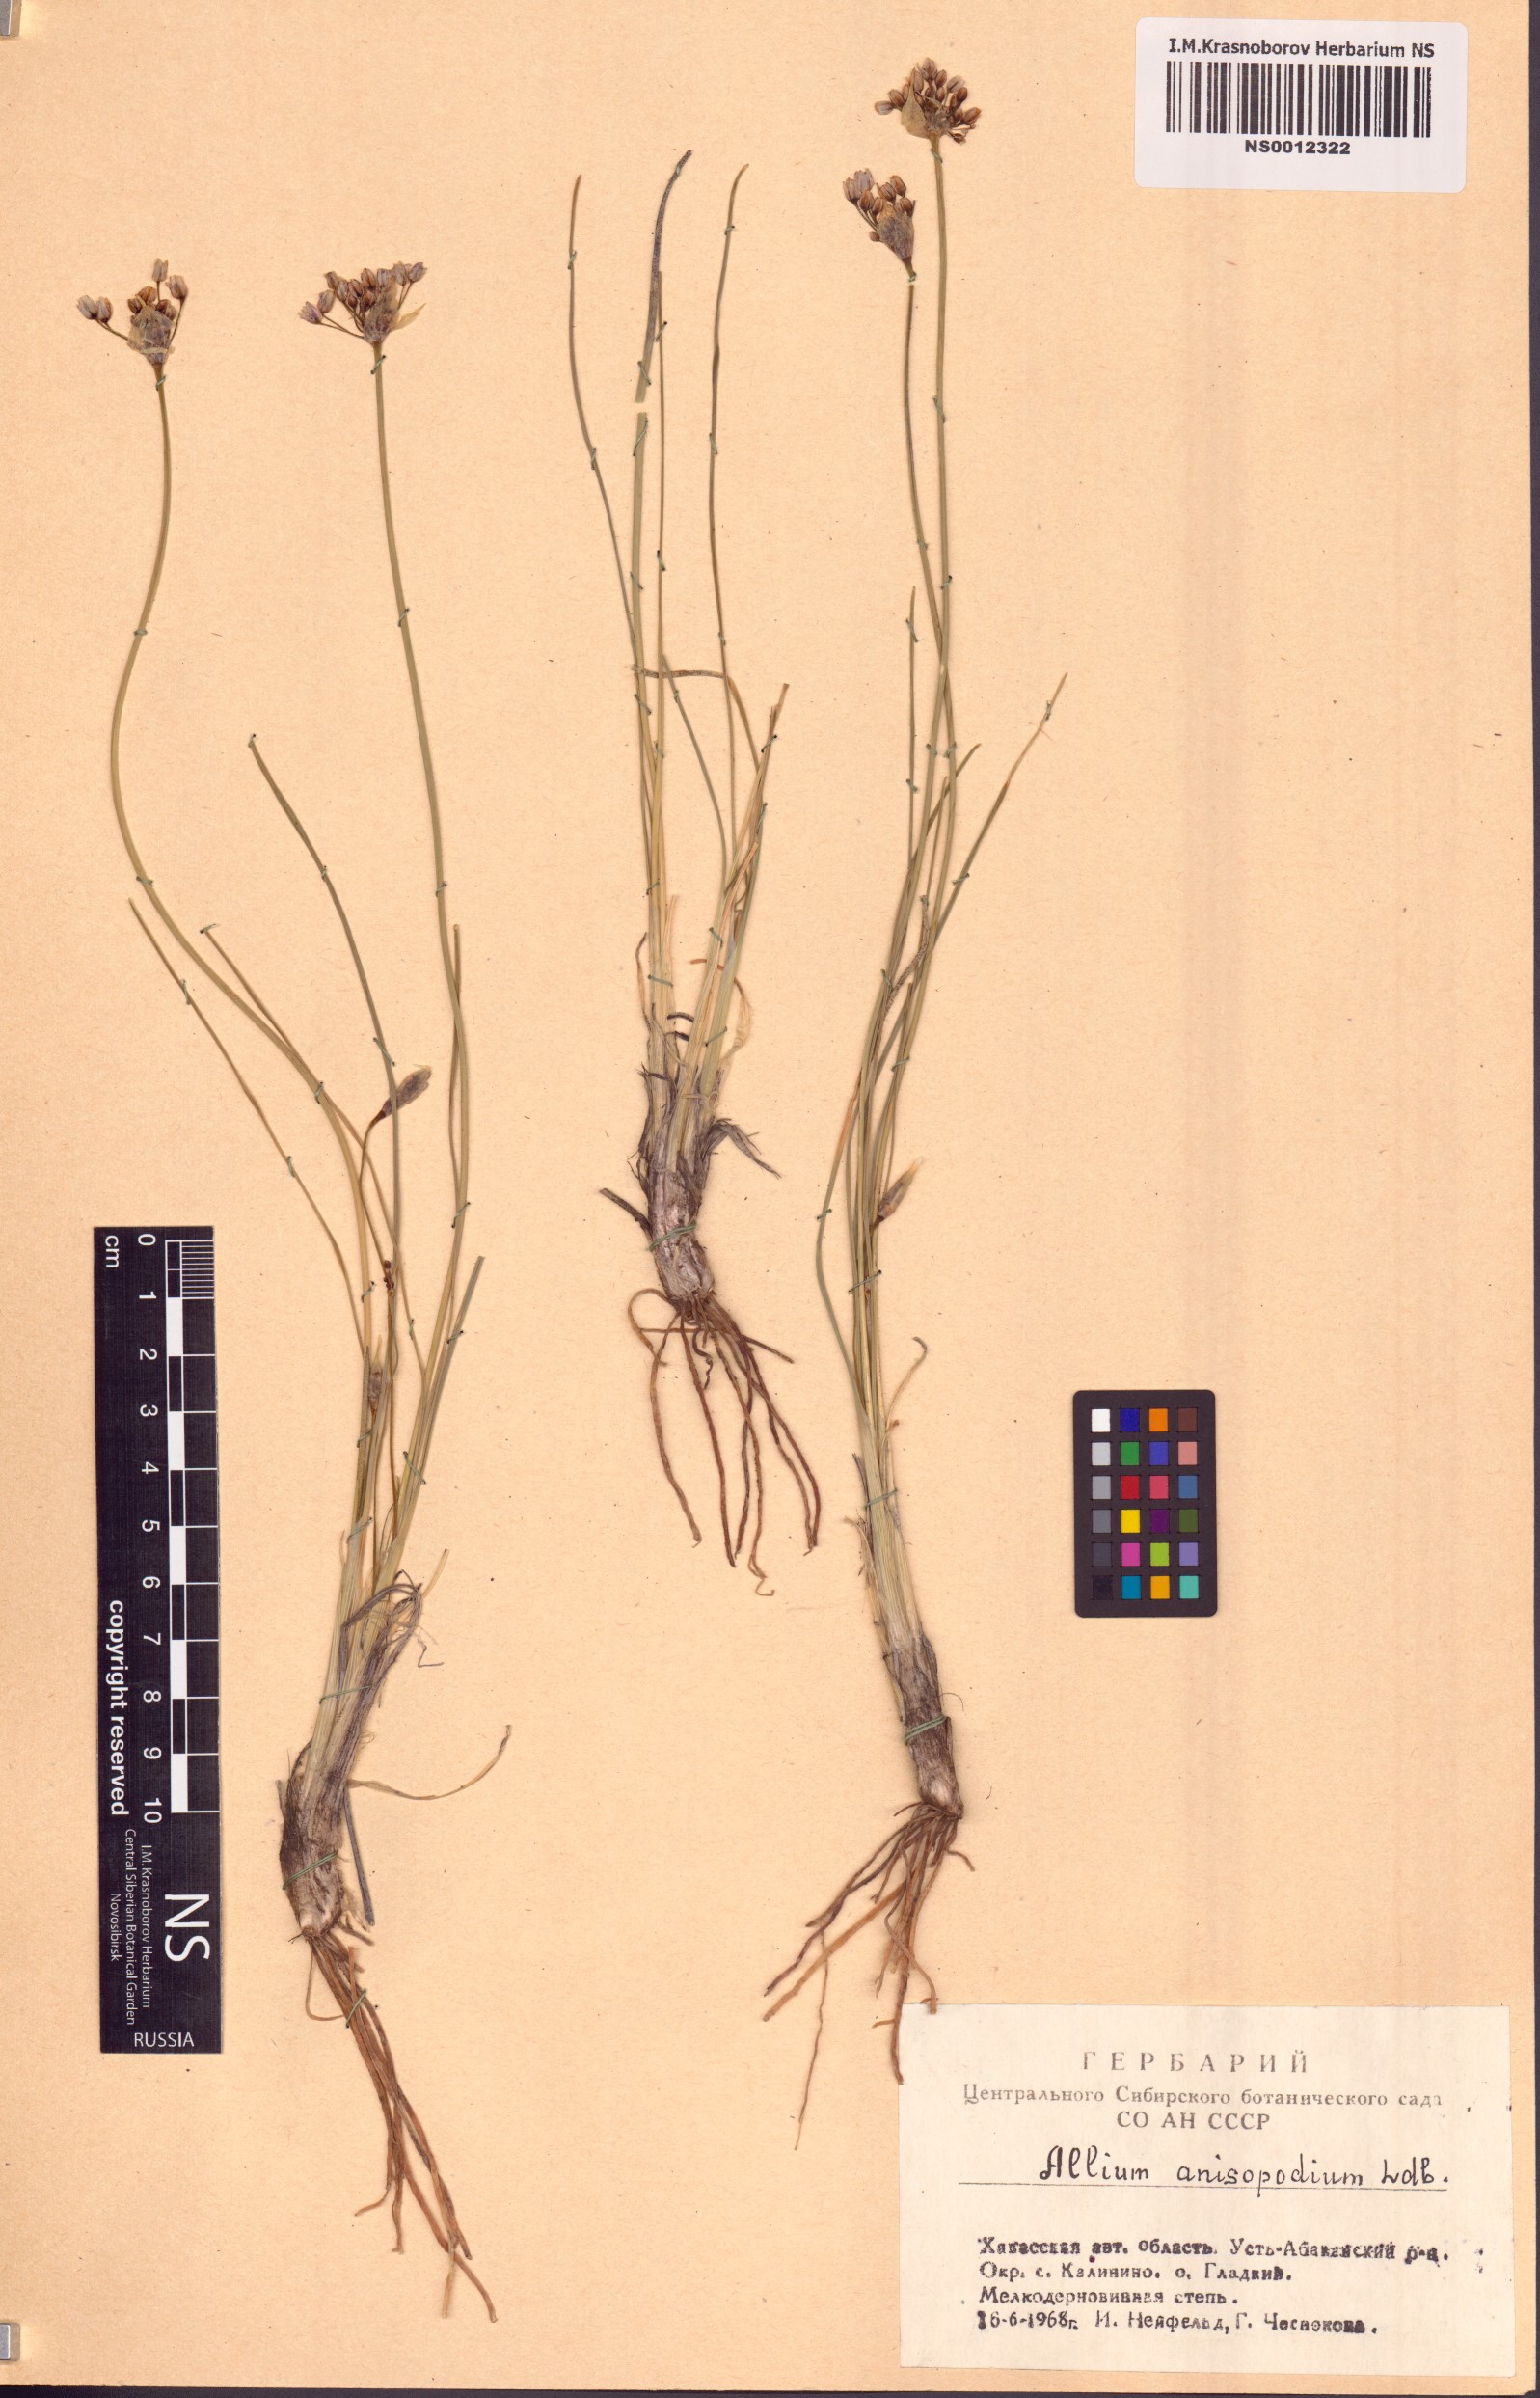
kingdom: Plantae
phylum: Tracheophyta
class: Liliopsida
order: Asparagales
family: Amaryllidaceae
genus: Allium
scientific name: Allium anisopodium
